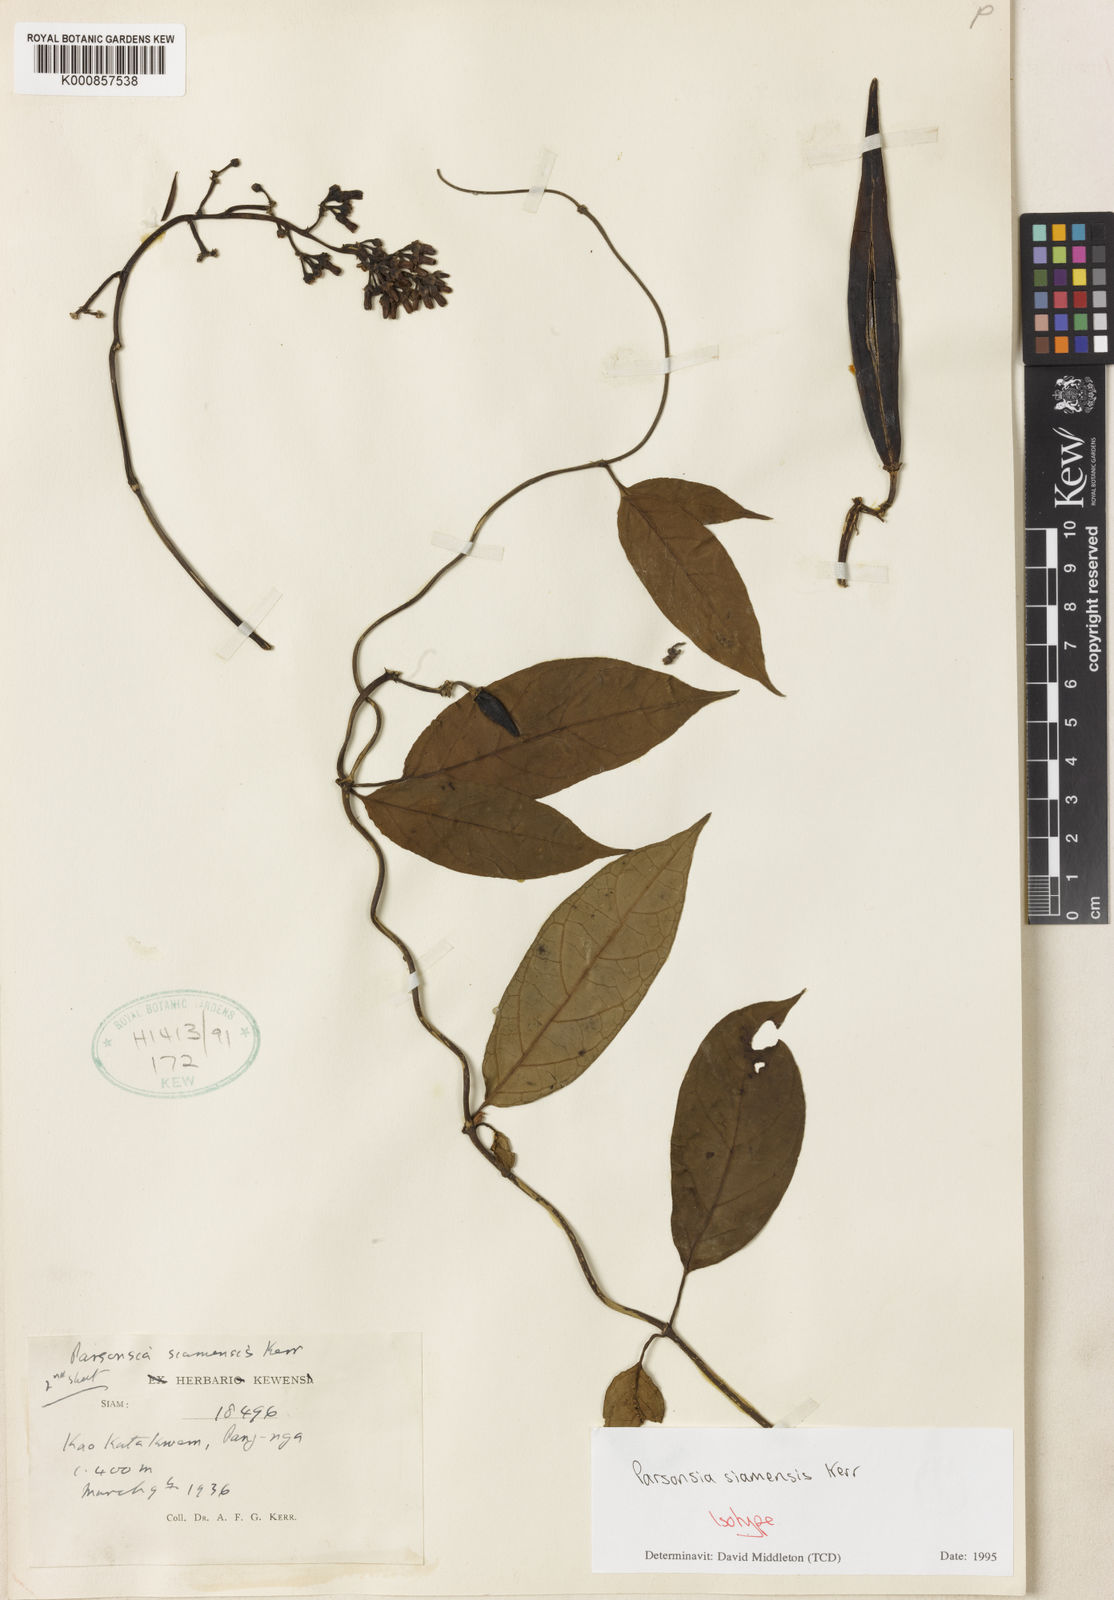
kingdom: Plantae
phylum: Tracheophyta
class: Magnoliopsida
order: Gentianales
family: Apocynaceae
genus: Parsonsia
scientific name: Parsonsia philippinensis
